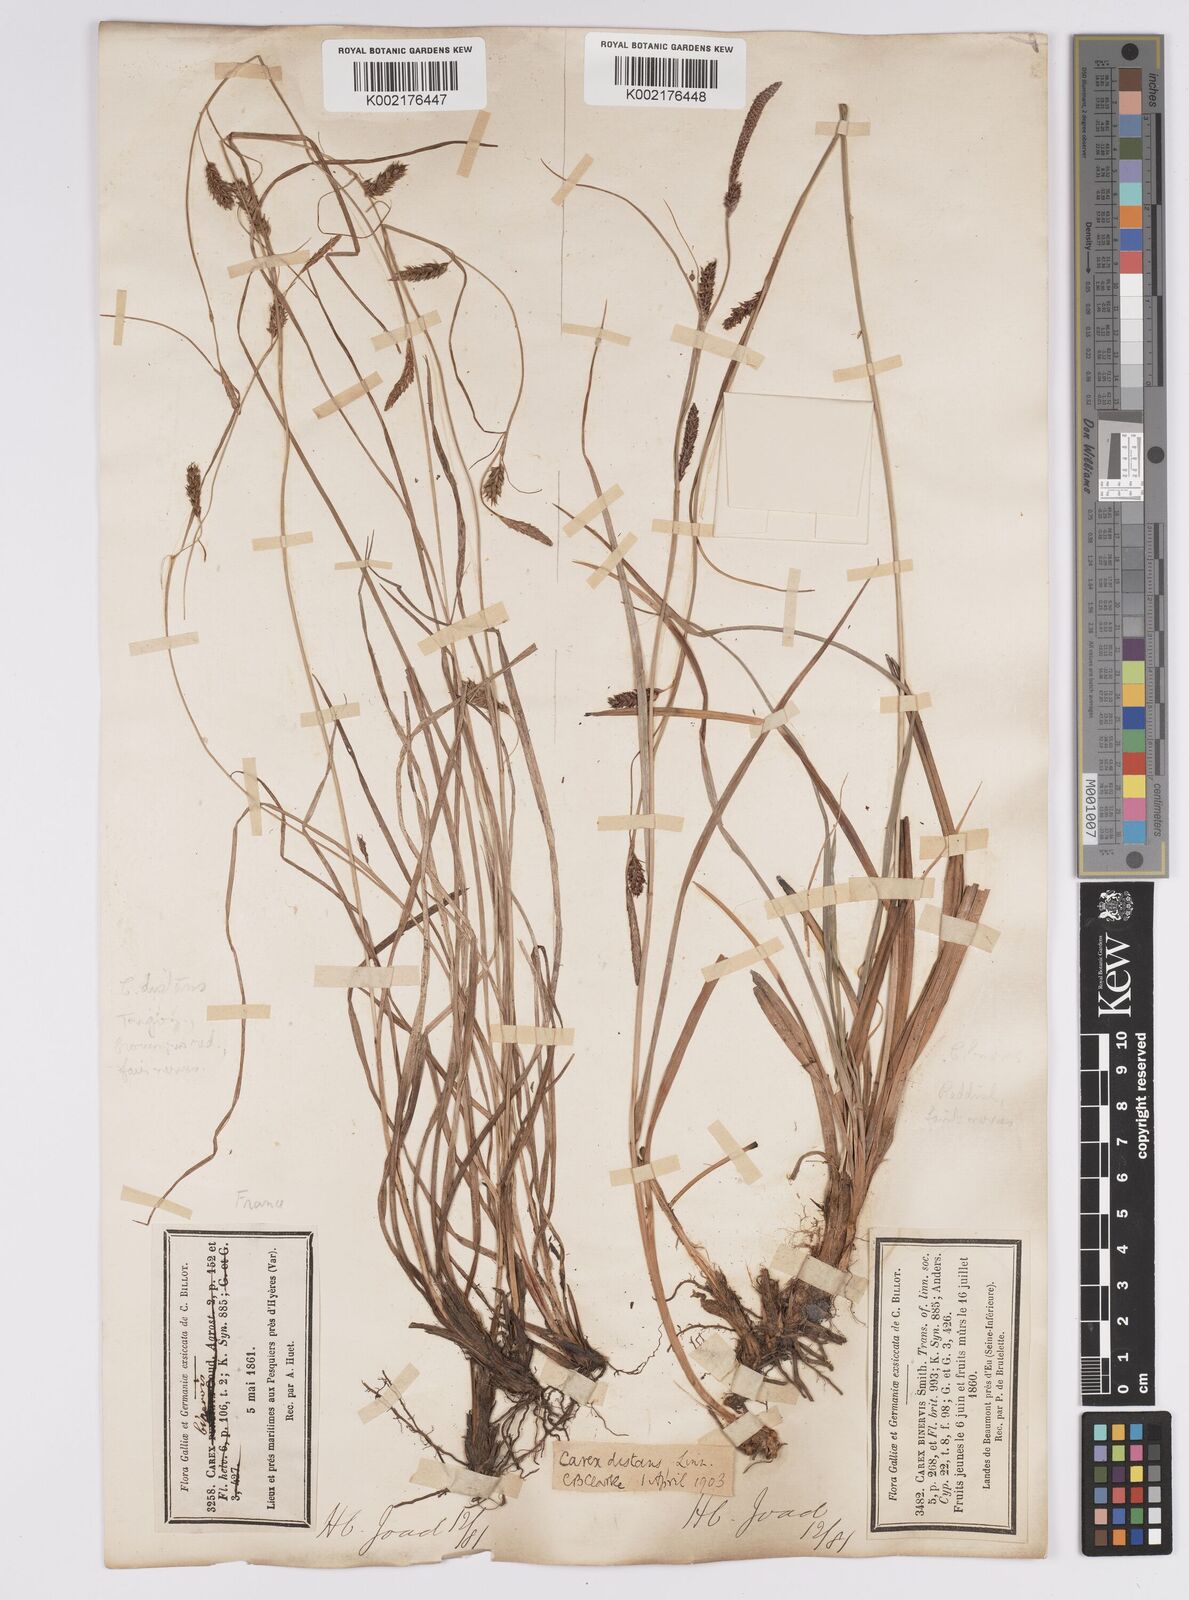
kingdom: Plantae
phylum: Tracheophyta
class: Liliopsida
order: Poales
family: Cyperaceae
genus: Carex
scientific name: Carex distans
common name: Distant sedge
